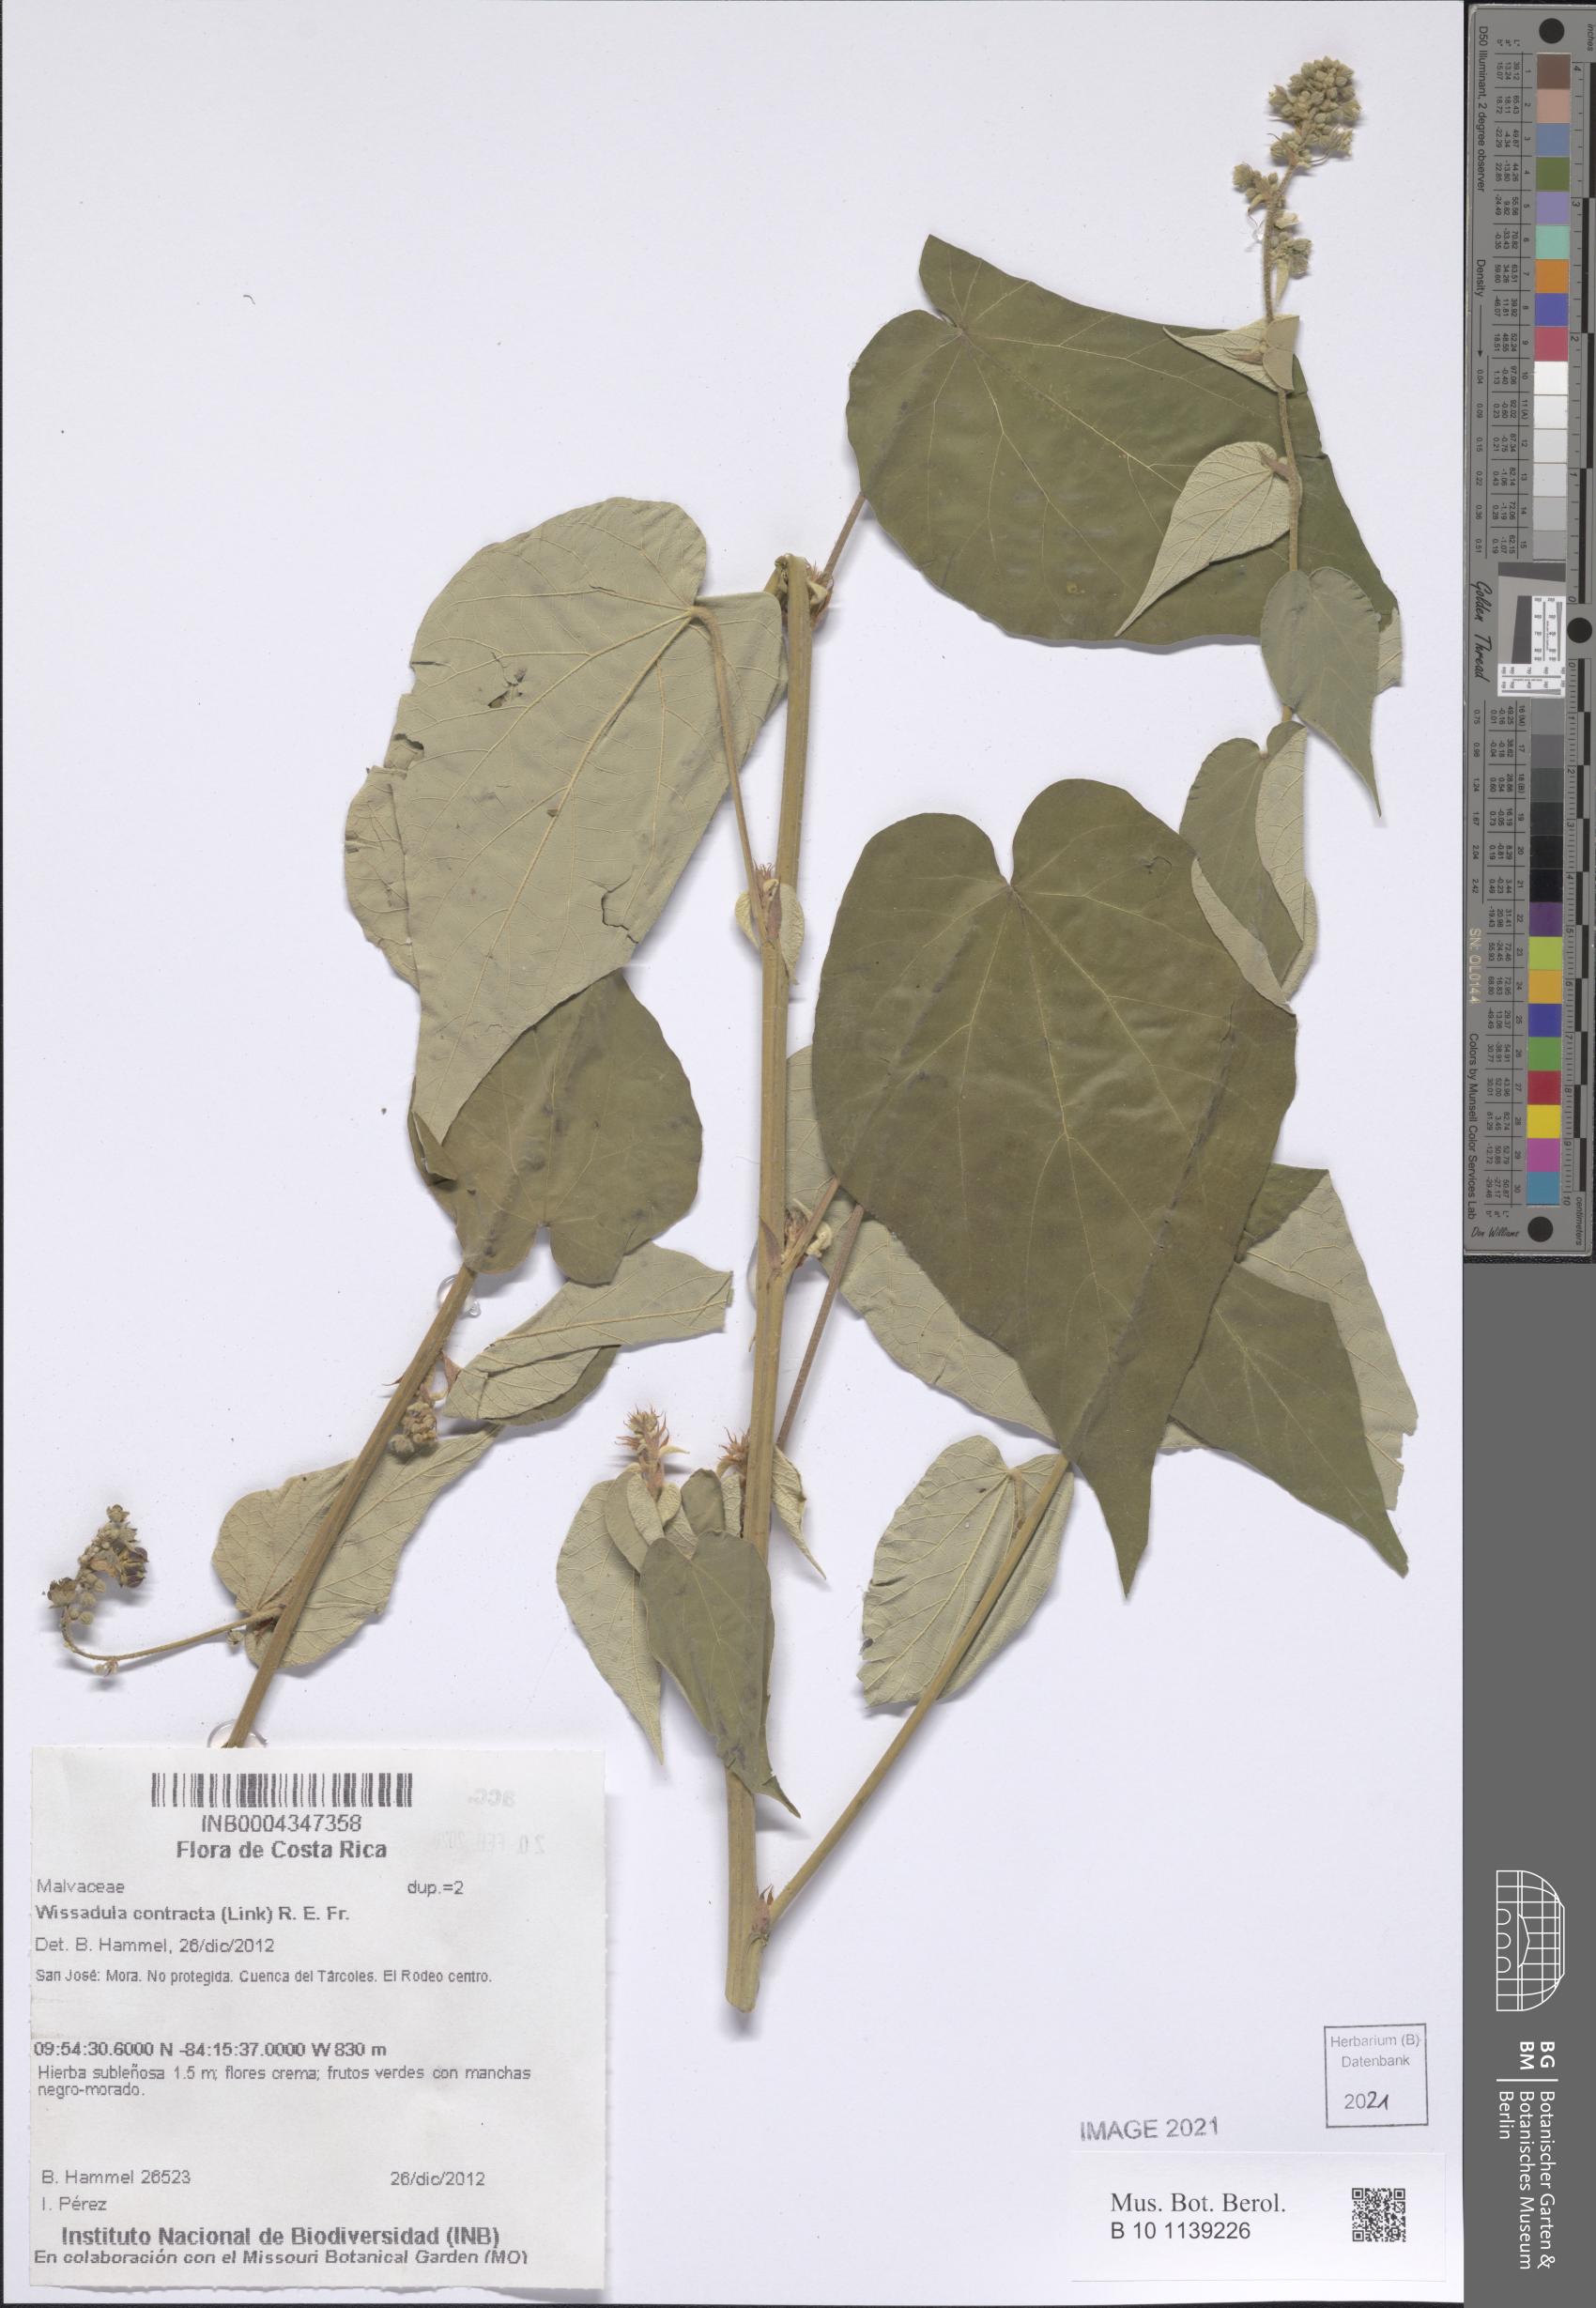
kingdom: Plantae
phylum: Tracheophyta
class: Magnoliopsida
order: Malvales
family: Malvaceae
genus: Wissadula
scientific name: Wissadula contracta
